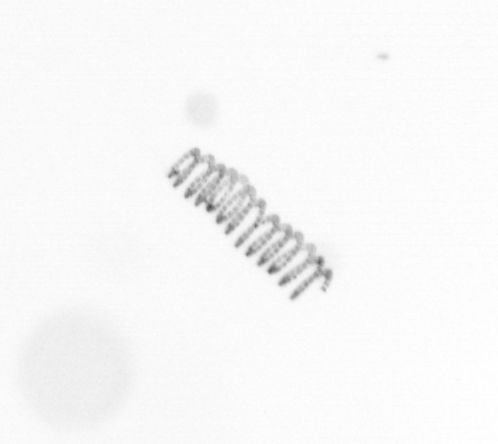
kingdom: Chromista
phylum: Ochrophyta
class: Bacillariophyceae
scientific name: Bacillariophyceae
